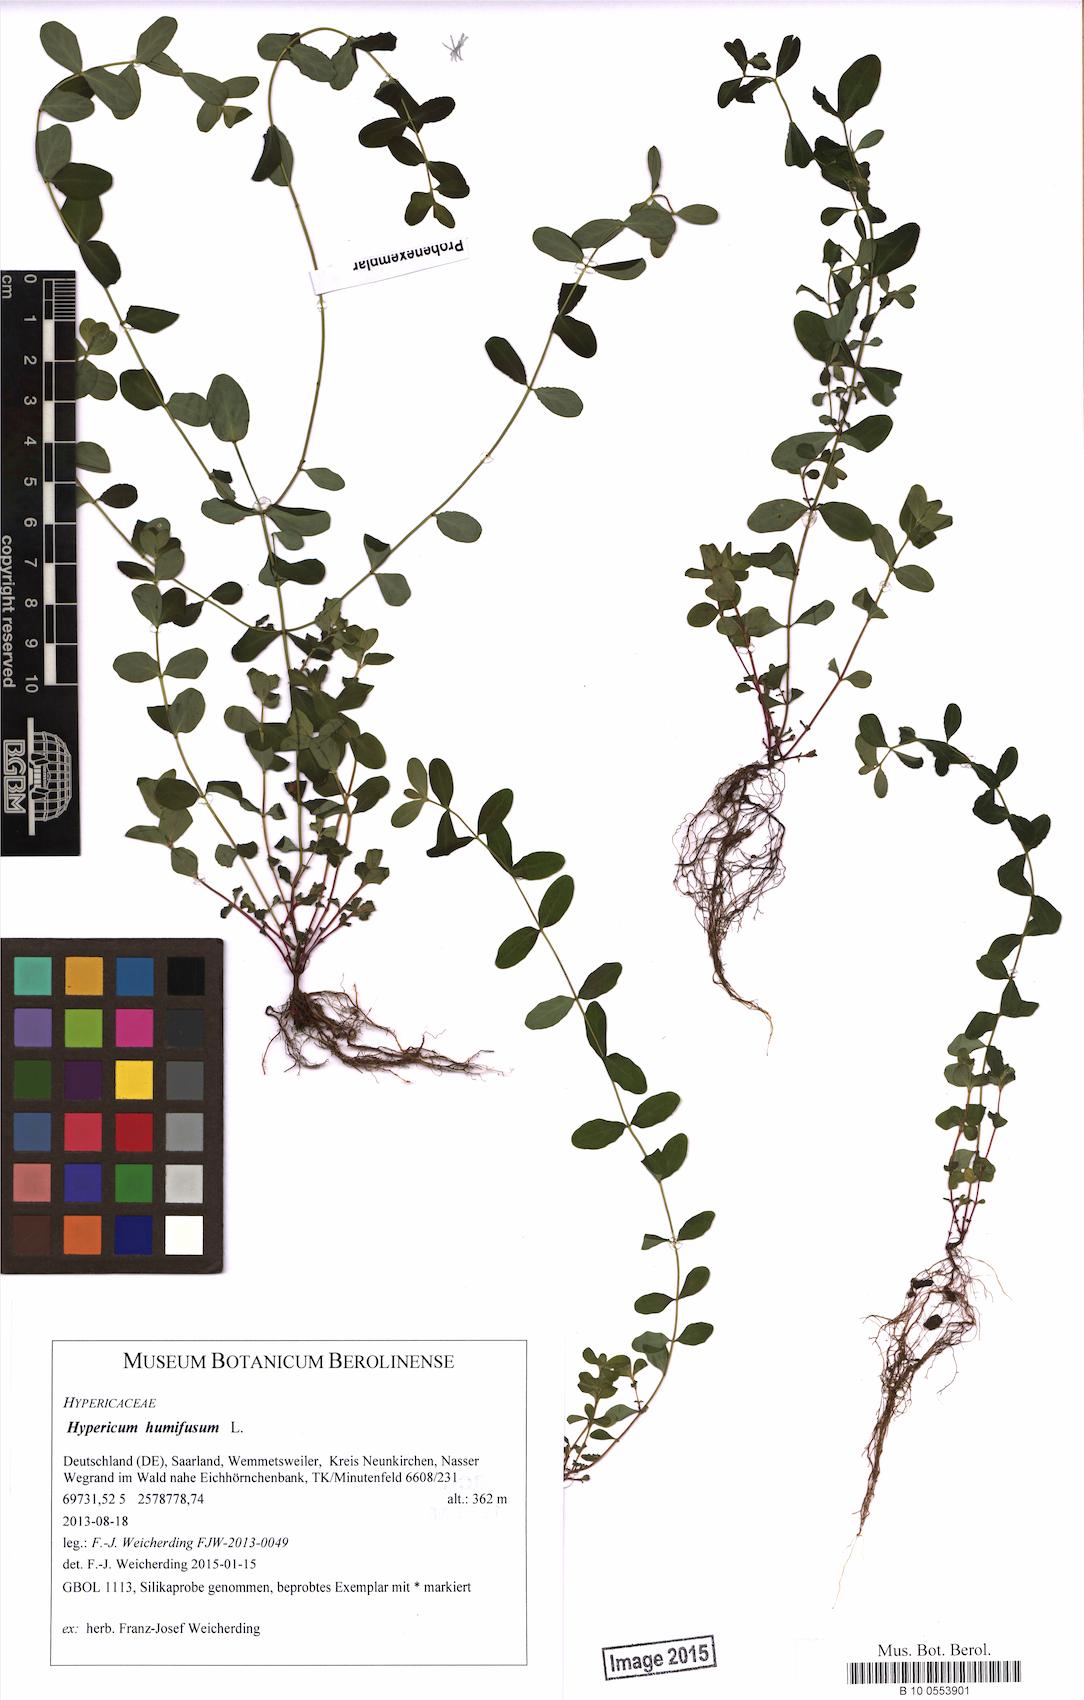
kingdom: Plantae
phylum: Tracheophyta
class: Magnoliopsida
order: Malpighiales
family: Hypericaceae
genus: Hypericum
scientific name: Hypericum humifusum
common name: Trailing st. john's-wort
